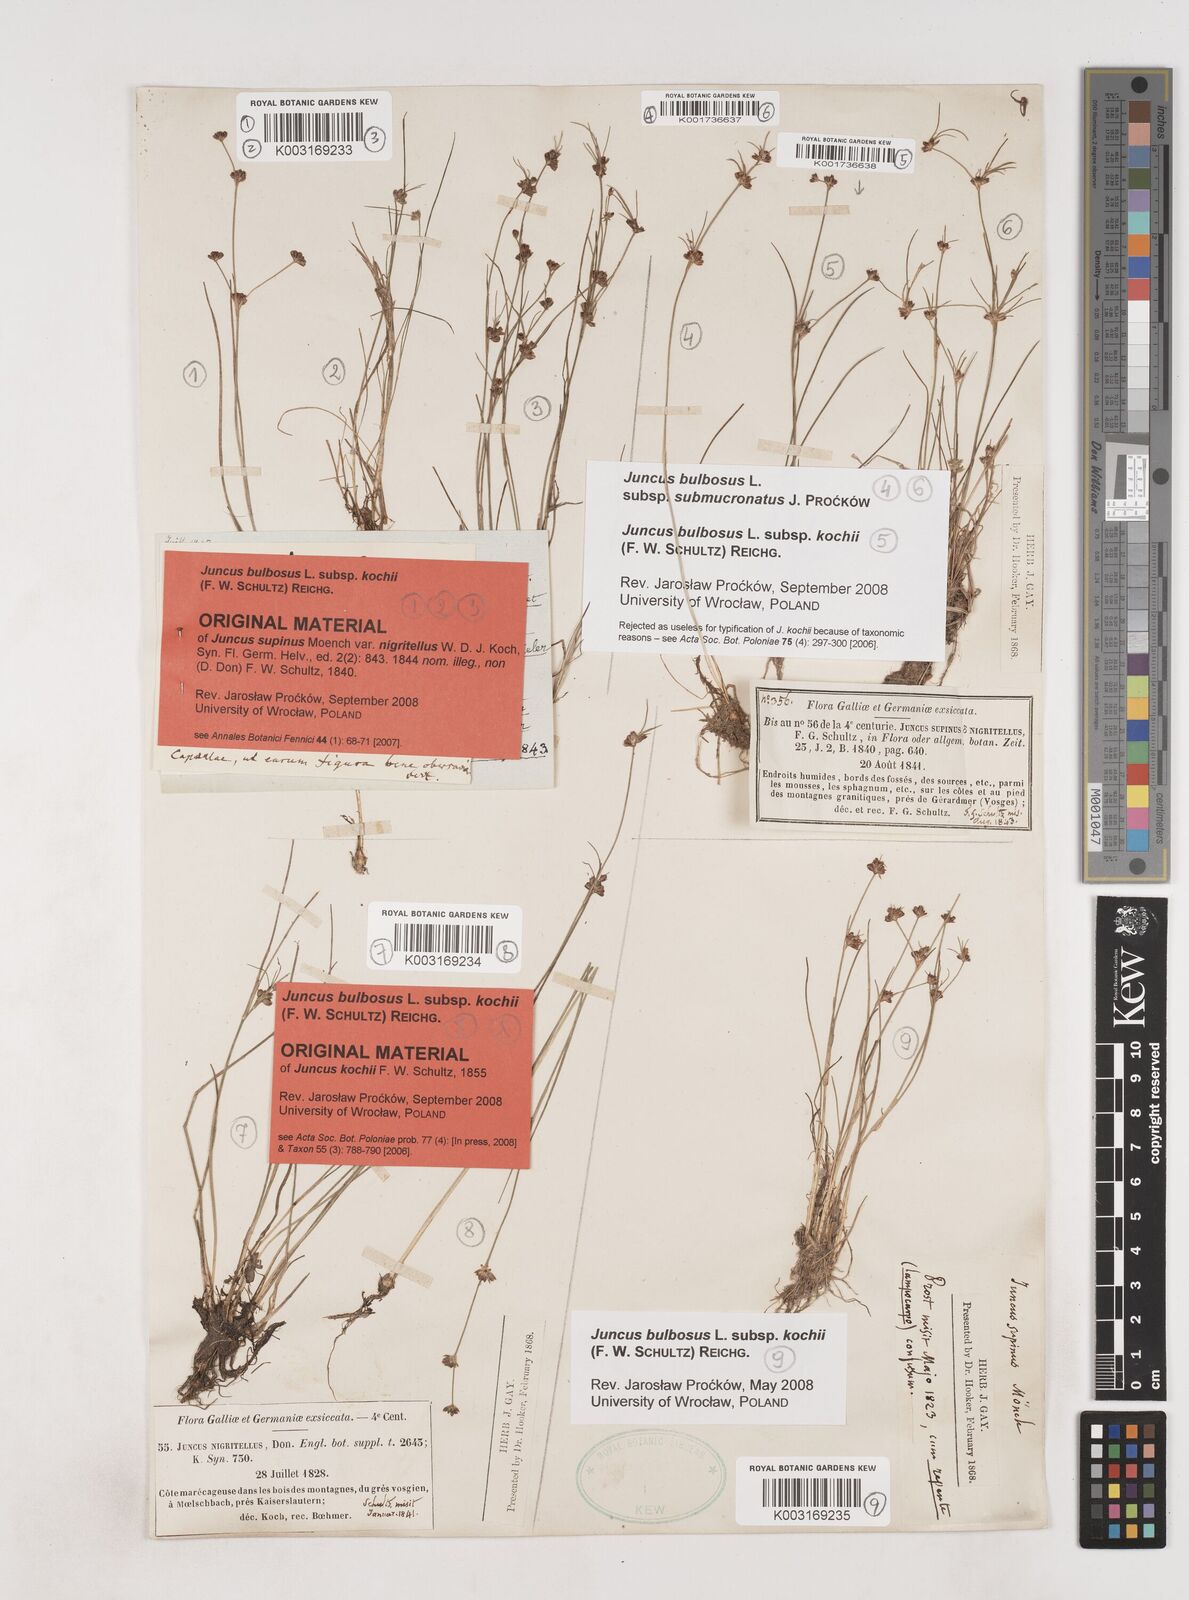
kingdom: Plantae
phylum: Tracheophyta
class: Liliopsida
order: Poales
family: Juncaceae
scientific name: Juncaceae
